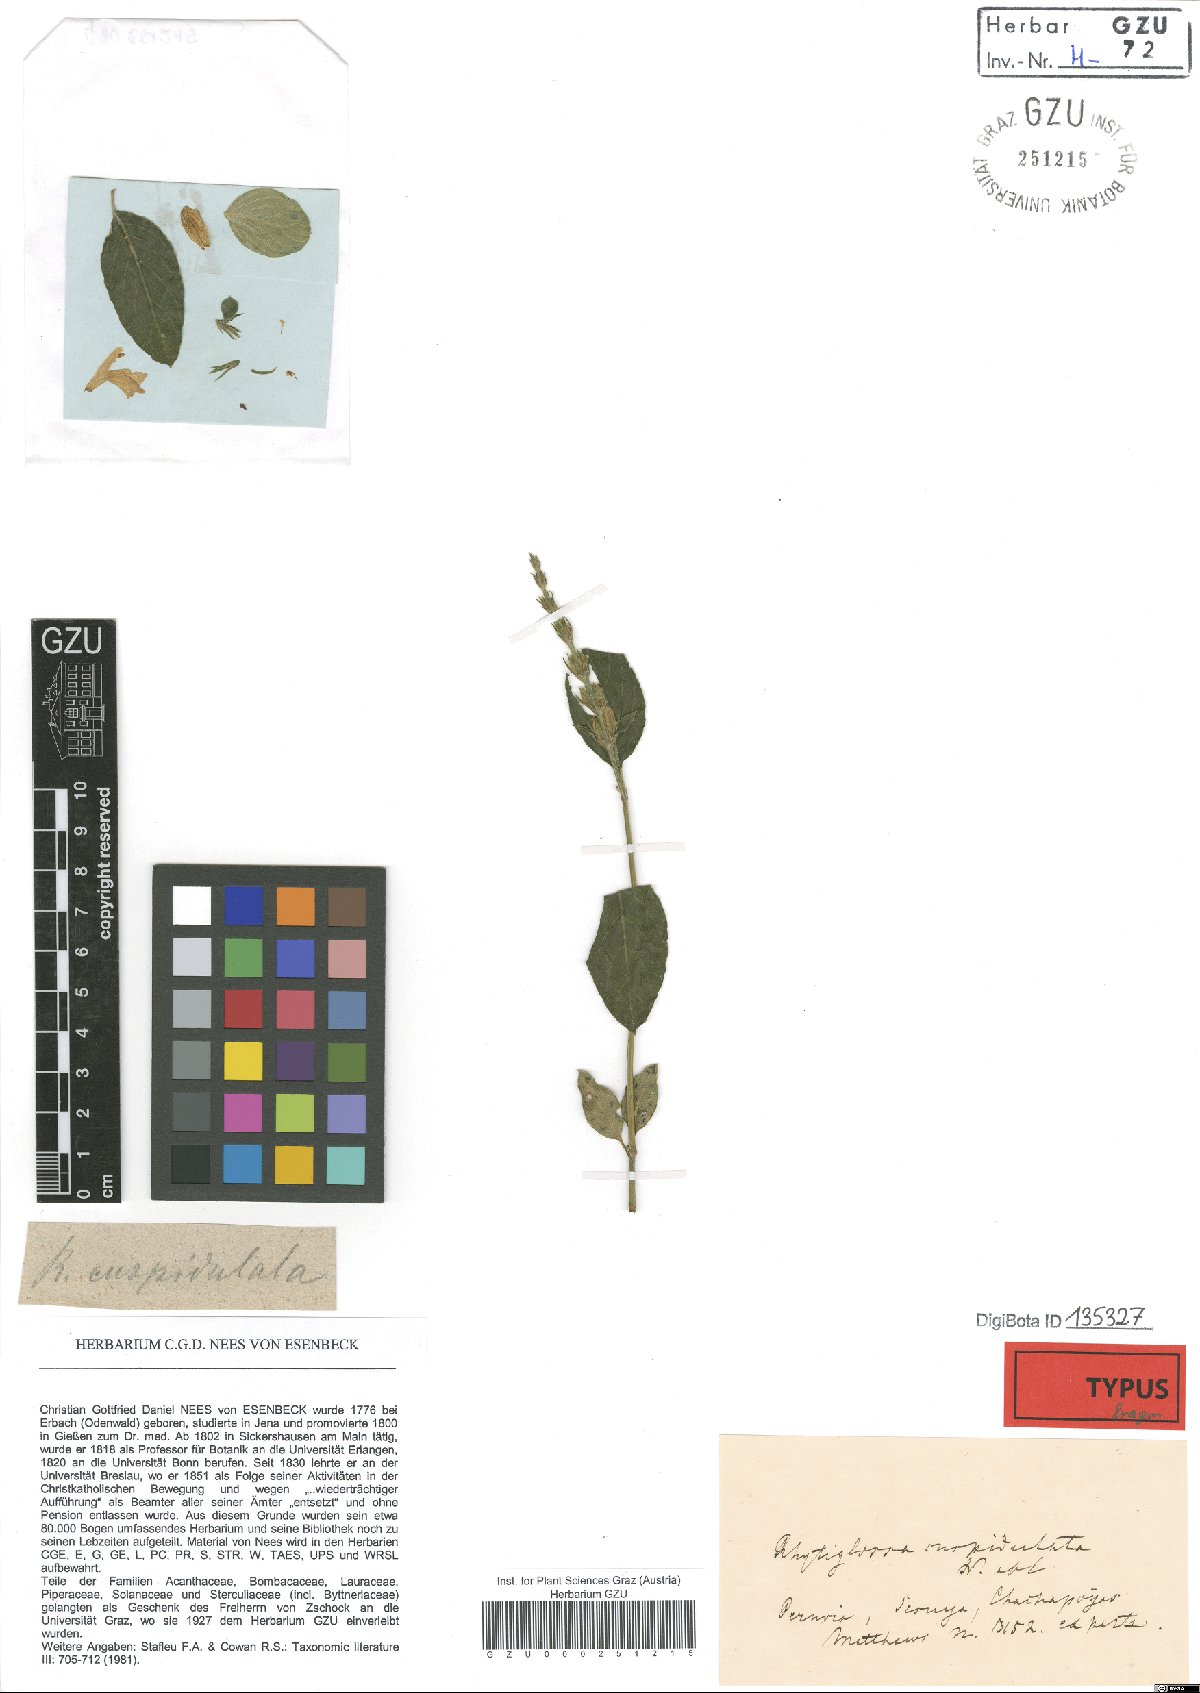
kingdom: Plantae
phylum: Tracheophyta
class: Magnoliopsida
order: Lamiales
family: Acanthaceae
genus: Justicia
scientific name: Justicia cuspidulata
